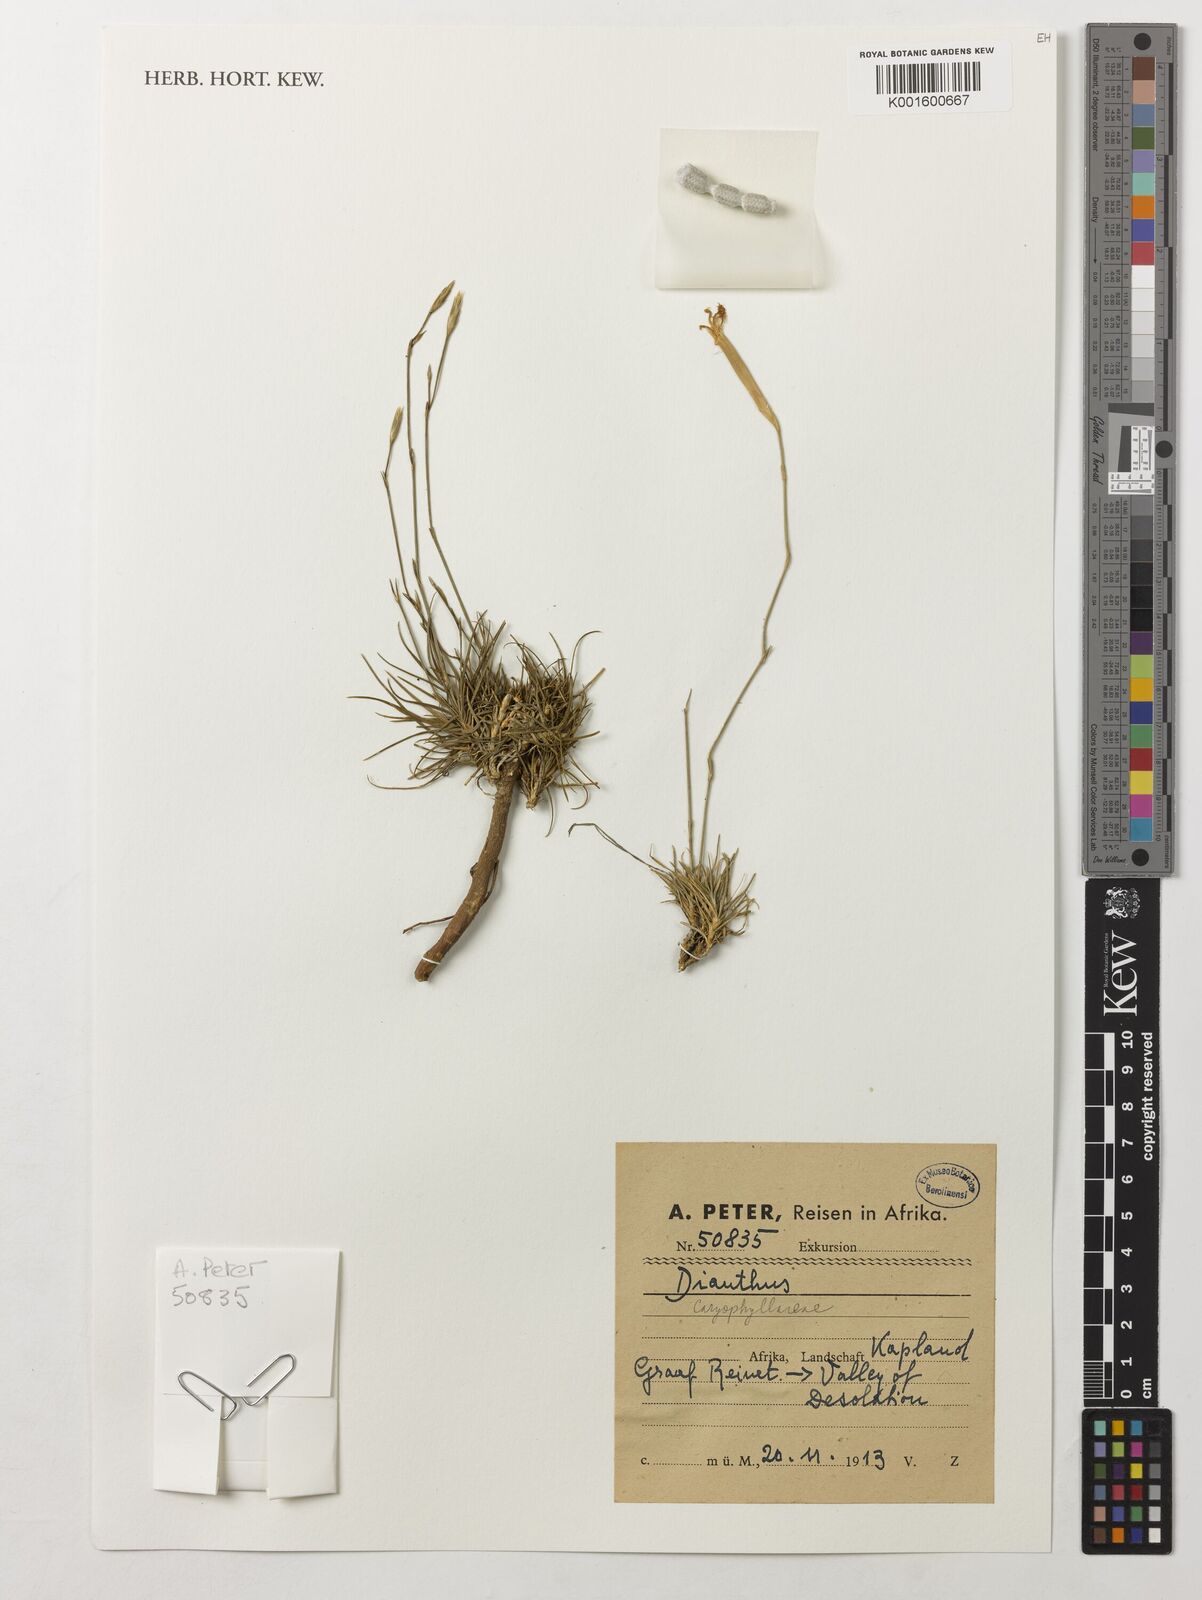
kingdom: Plantae
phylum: Tracheophyta
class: Magnoliopsida
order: Caryophyllales
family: Caryophyllaceae
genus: Dianthus
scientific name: Dianthus
